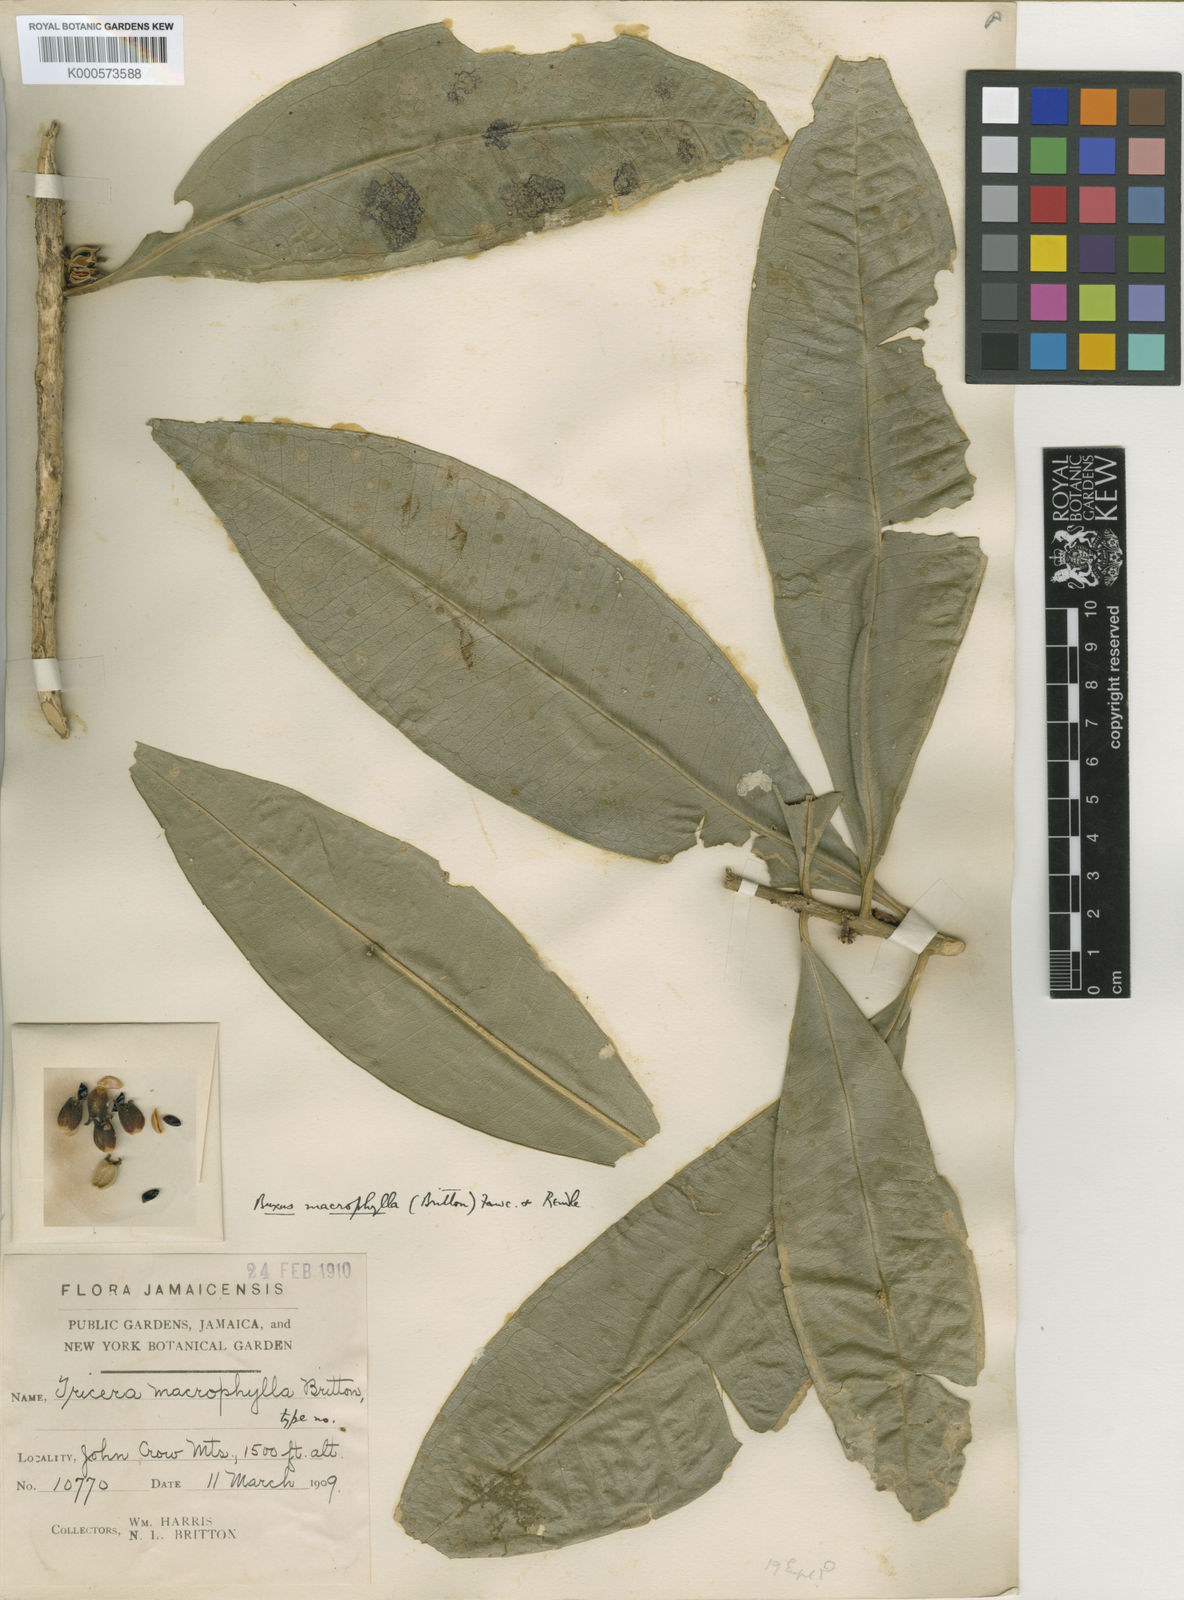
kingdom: Plantae
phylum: Tracheophyta
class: Magnoliopsida
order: Buxales
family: Buxaceae
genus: Buxus
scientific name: Buxus macrophylla
